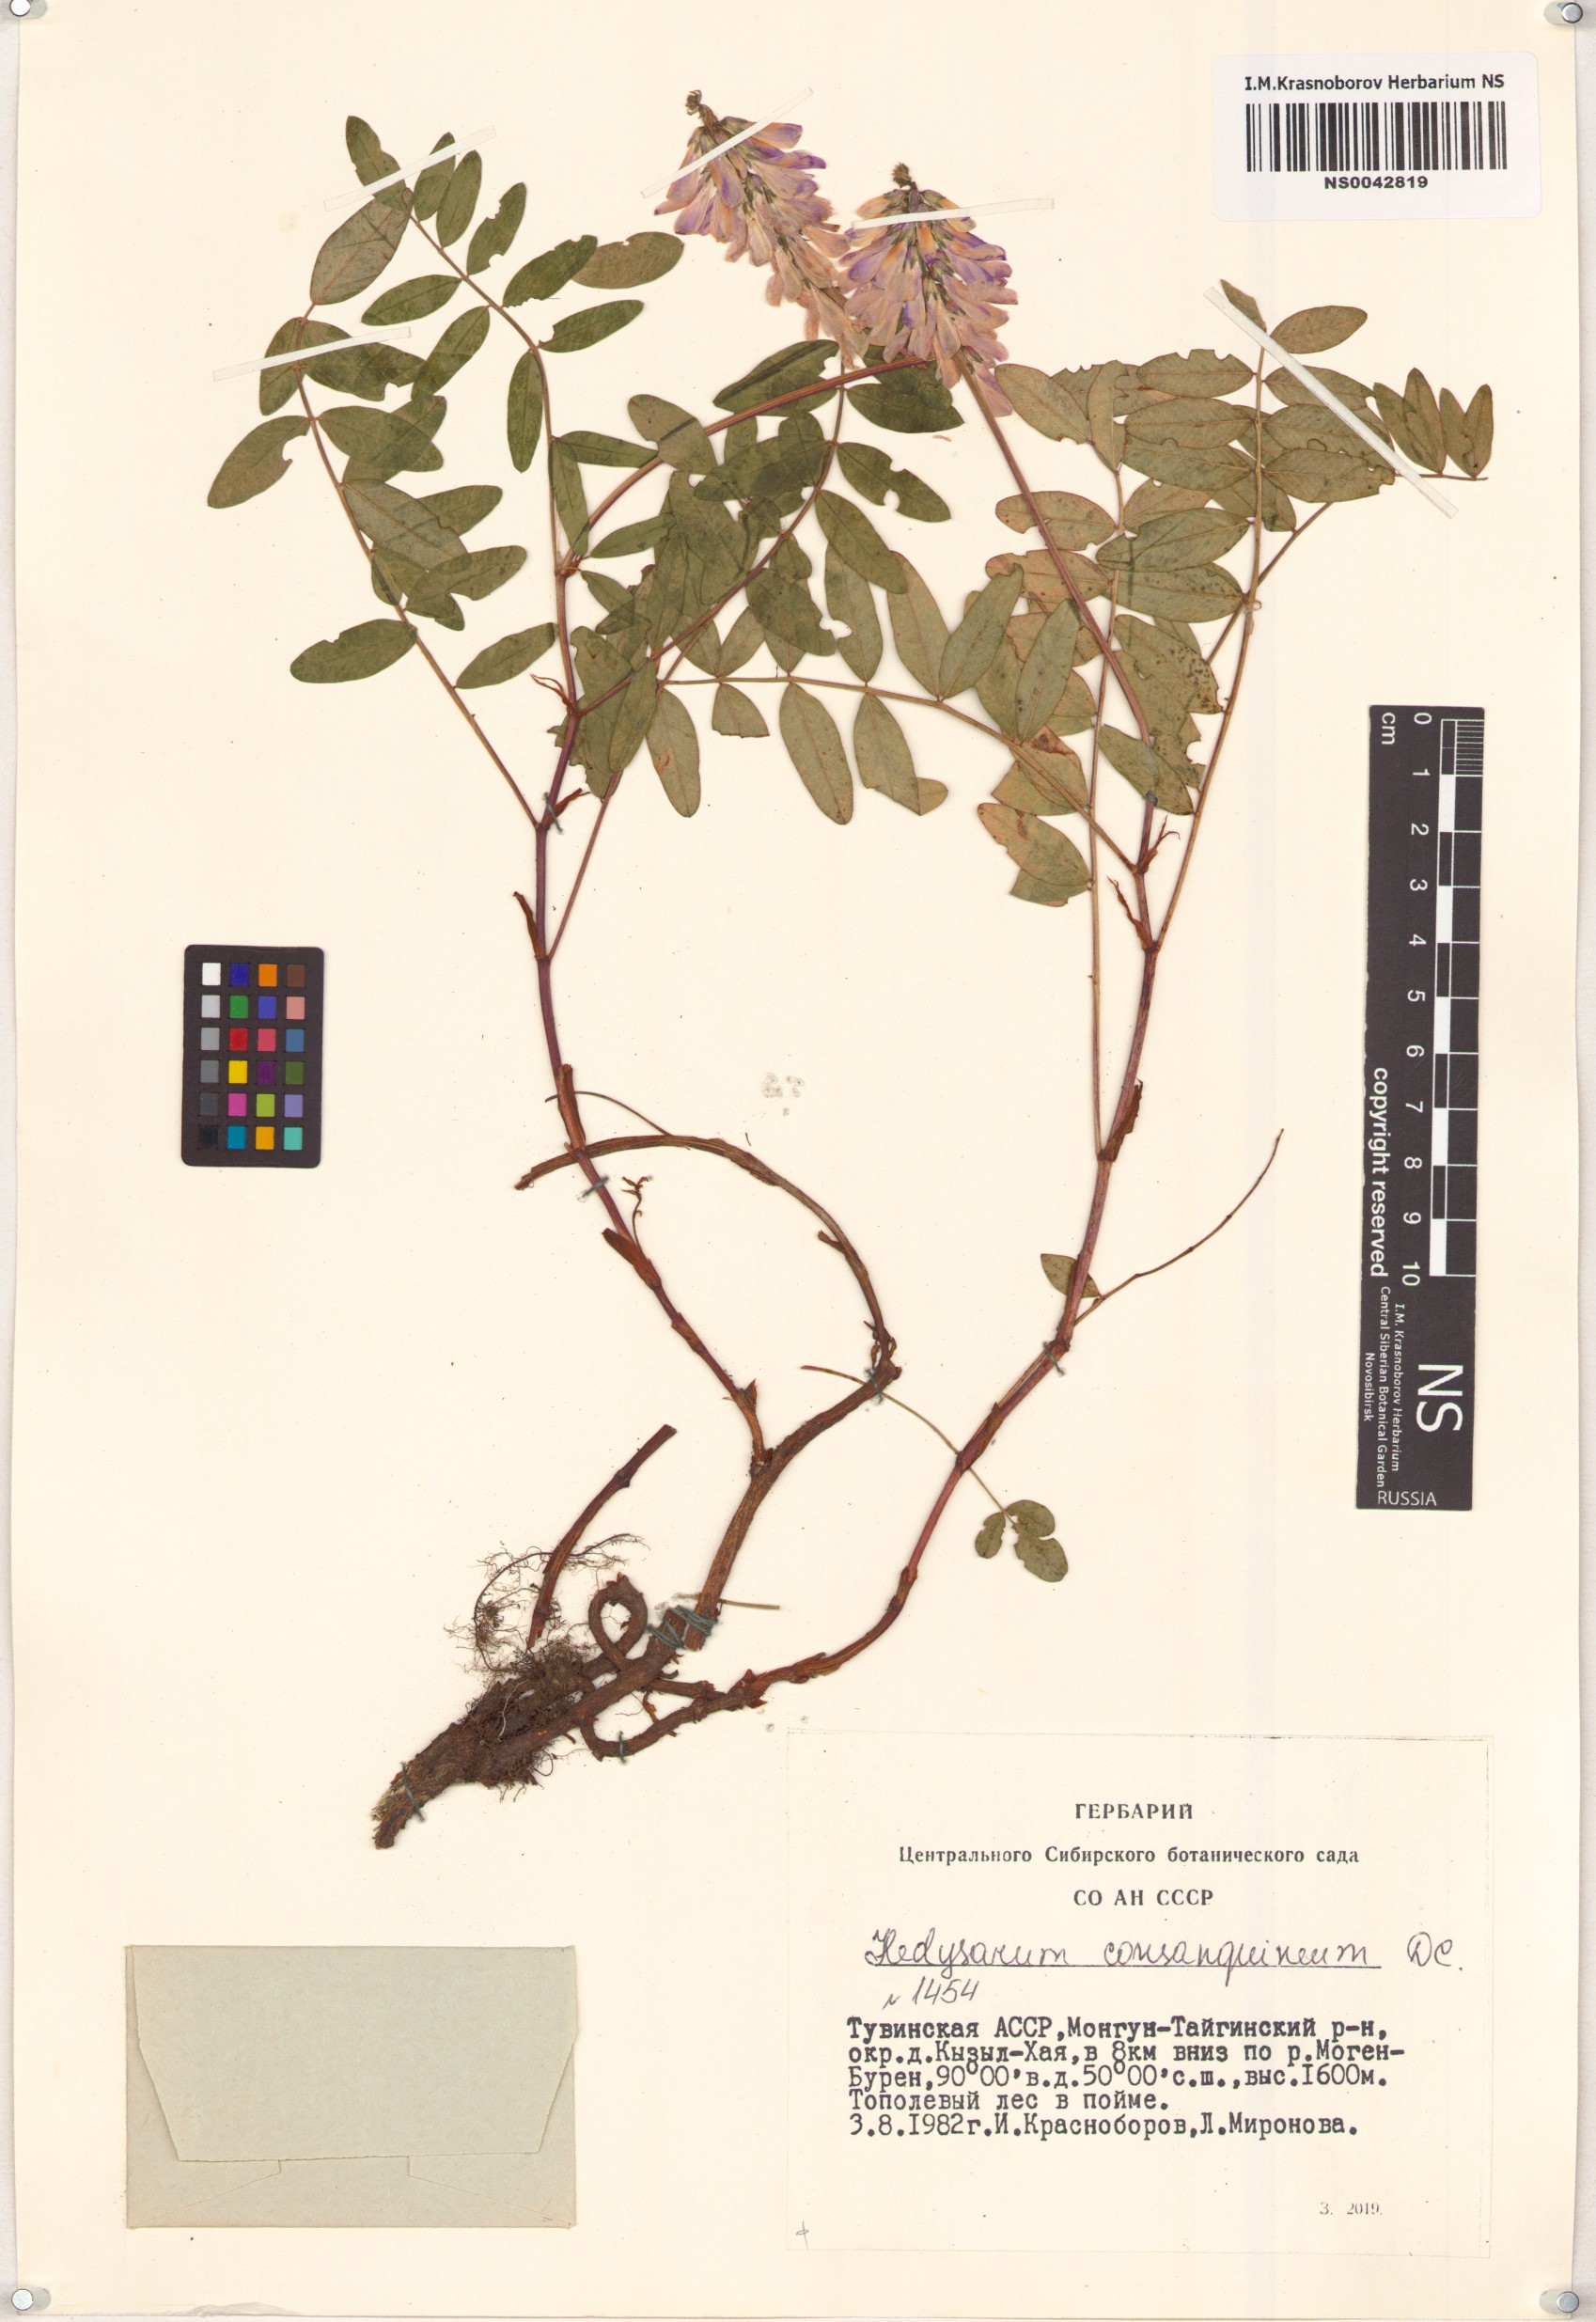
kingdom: Plantae
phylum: Tracheophyta
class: Magnoliopsida
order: Fabales
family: Fabaceae
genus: Hedysarum
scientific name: Hedysarum consanguineum
